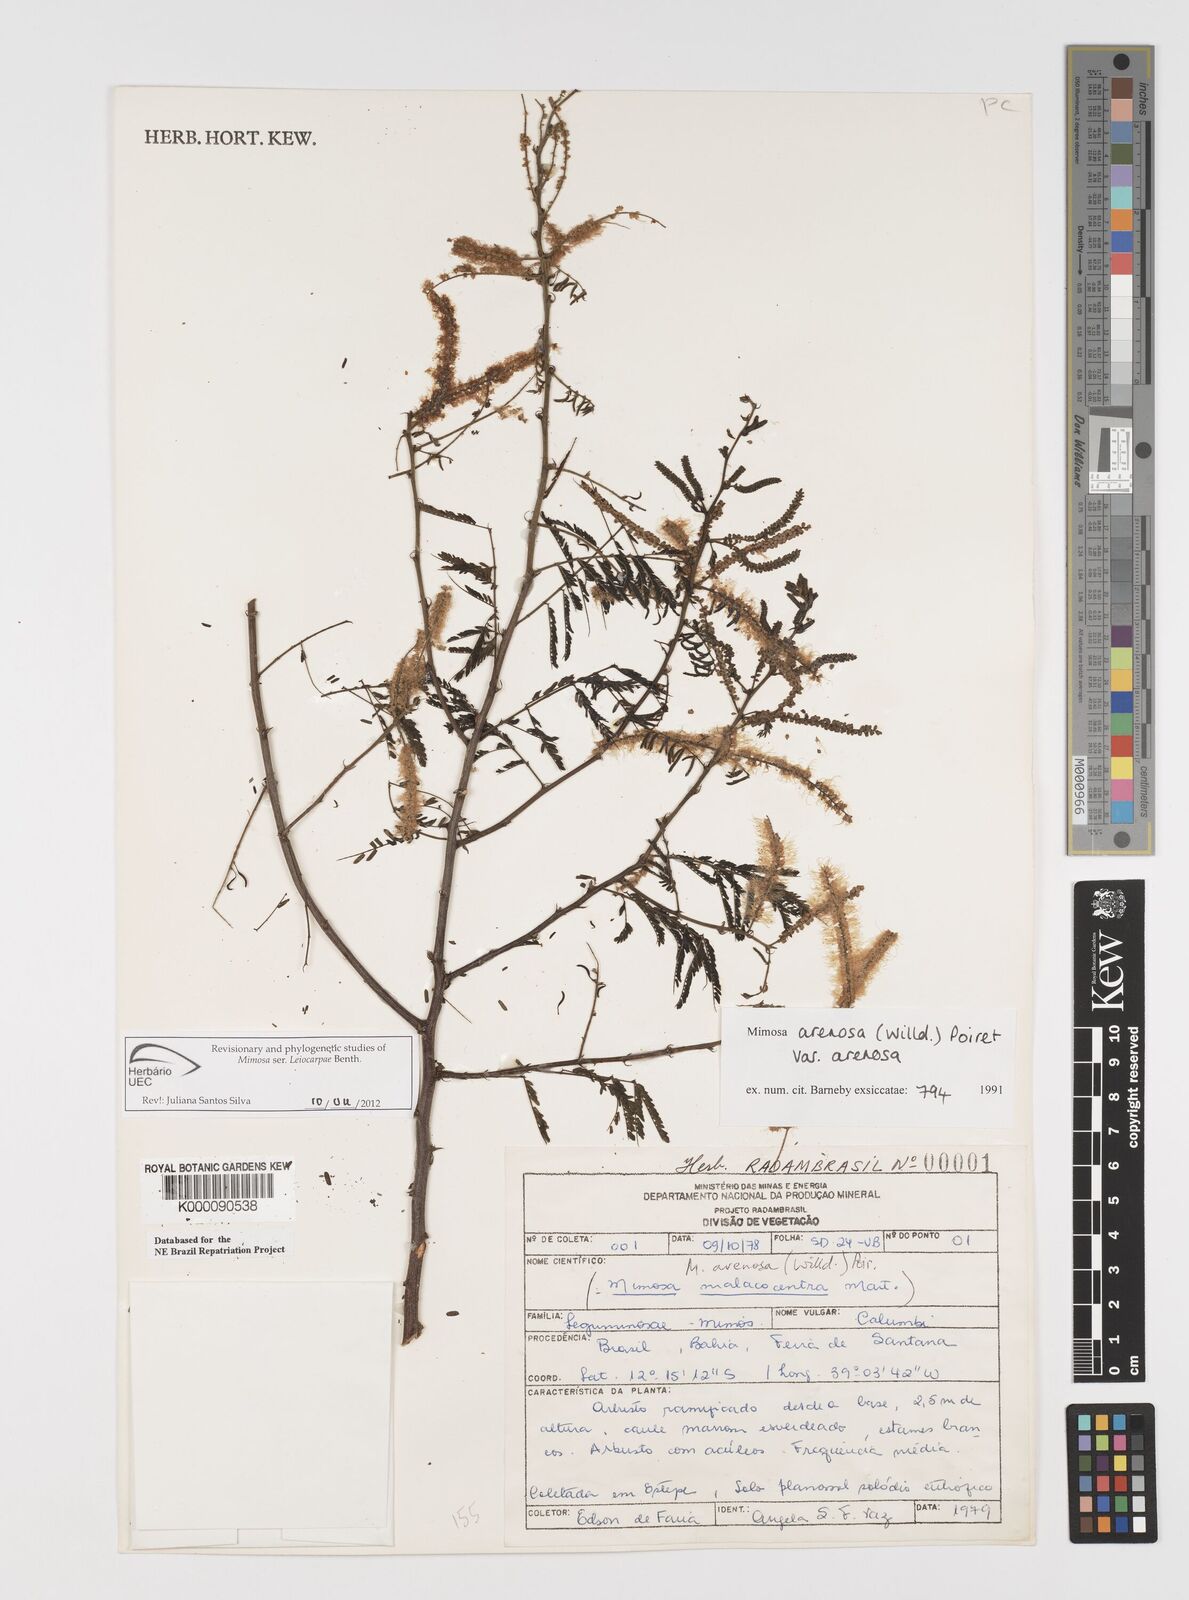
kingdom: Plantae
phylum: Tracheophyta
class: Magnoliopsida
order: Fabales
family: Fabaceae
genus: Mimosa
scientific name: Mimosa arenosa
